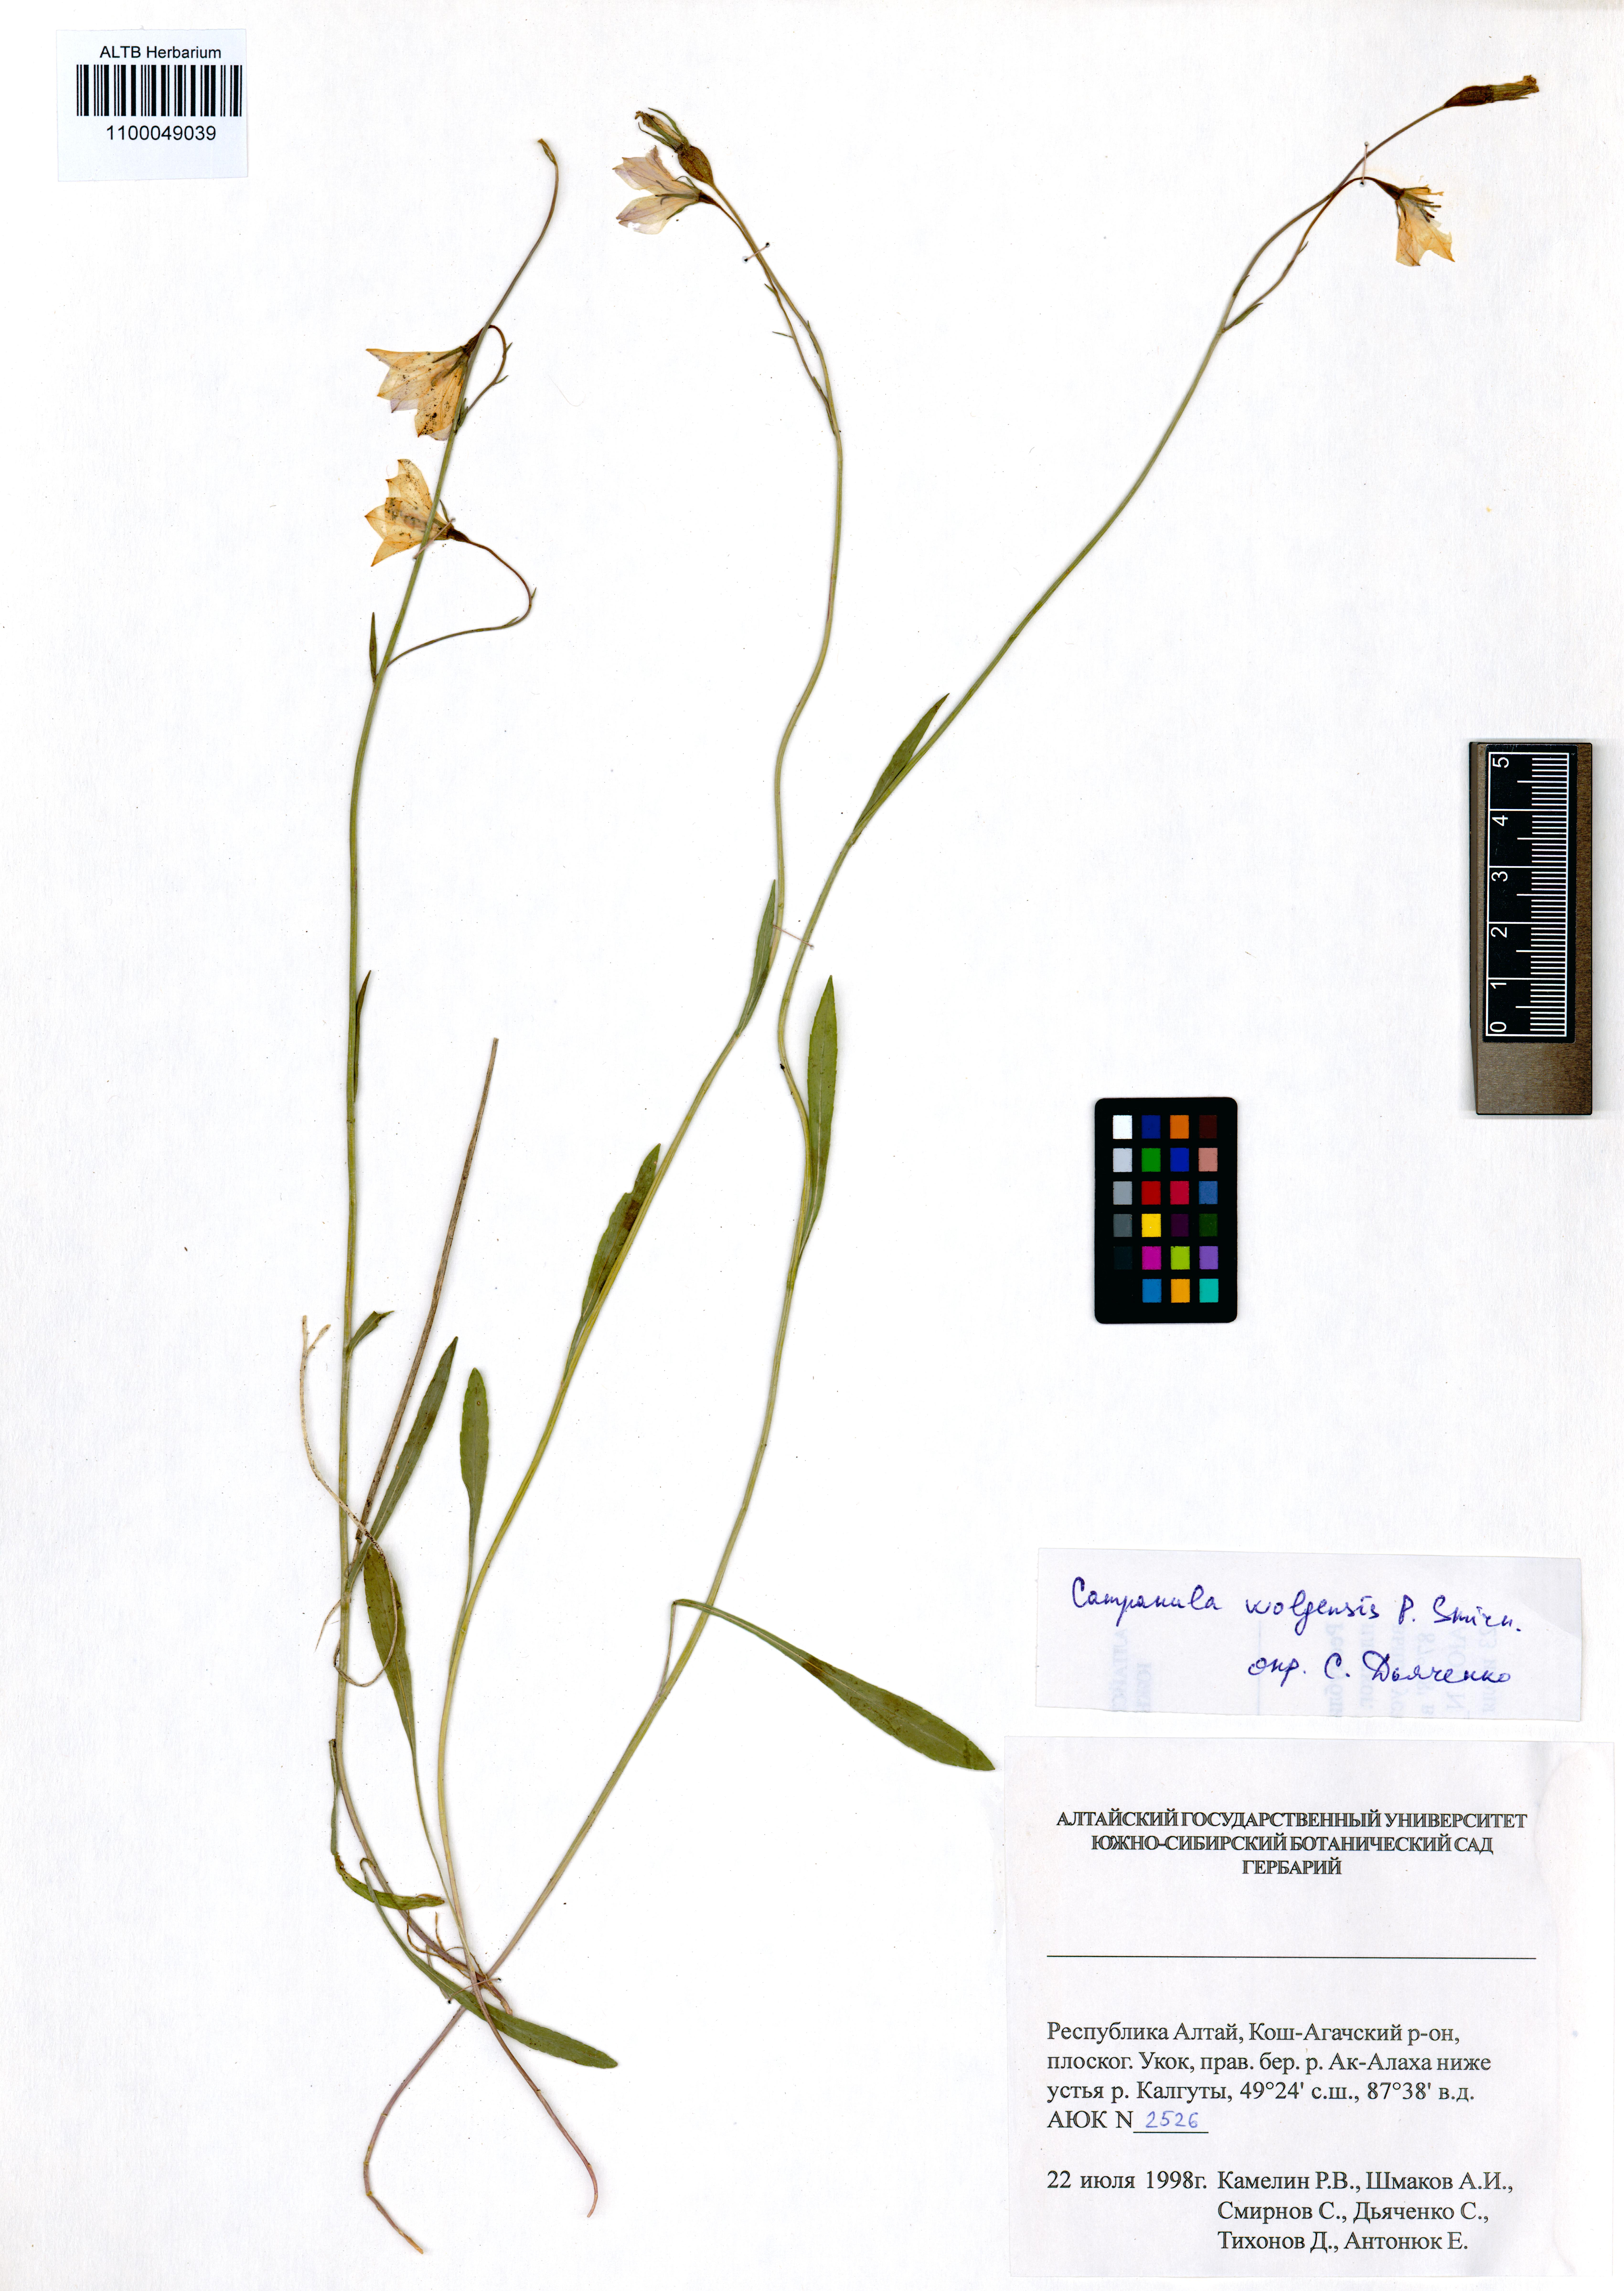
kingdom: Plantae
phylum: Tracheophyta
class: Magnoliopsida
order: Asterales
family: Campanulaceae
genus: Campanula
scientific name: Campanula stevenii
